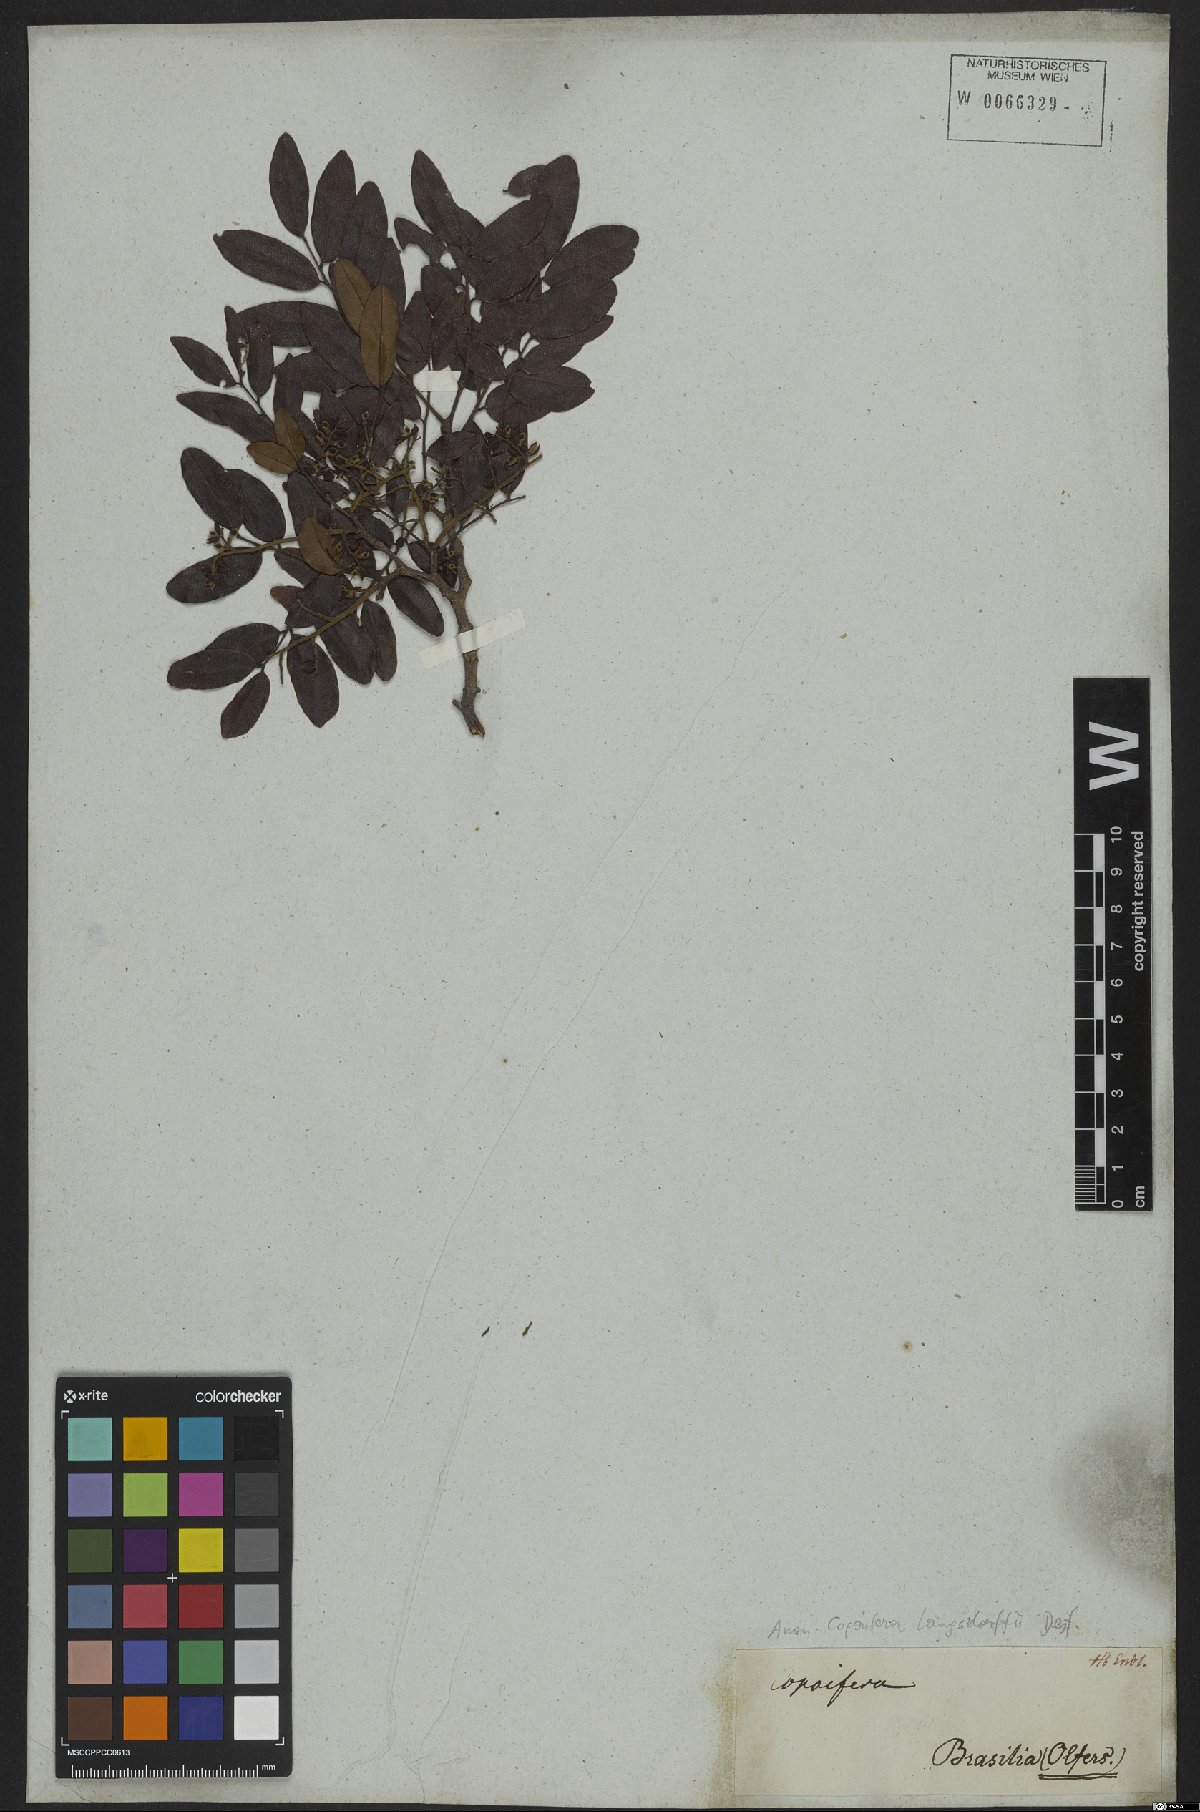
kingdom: Plantae
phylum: Tracheophyta
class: Magnoliopsida
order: Fabales
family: Fabaceae
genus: Copaifera
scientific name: Copaifera langsdorffii
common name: Brazilian diesel tree
